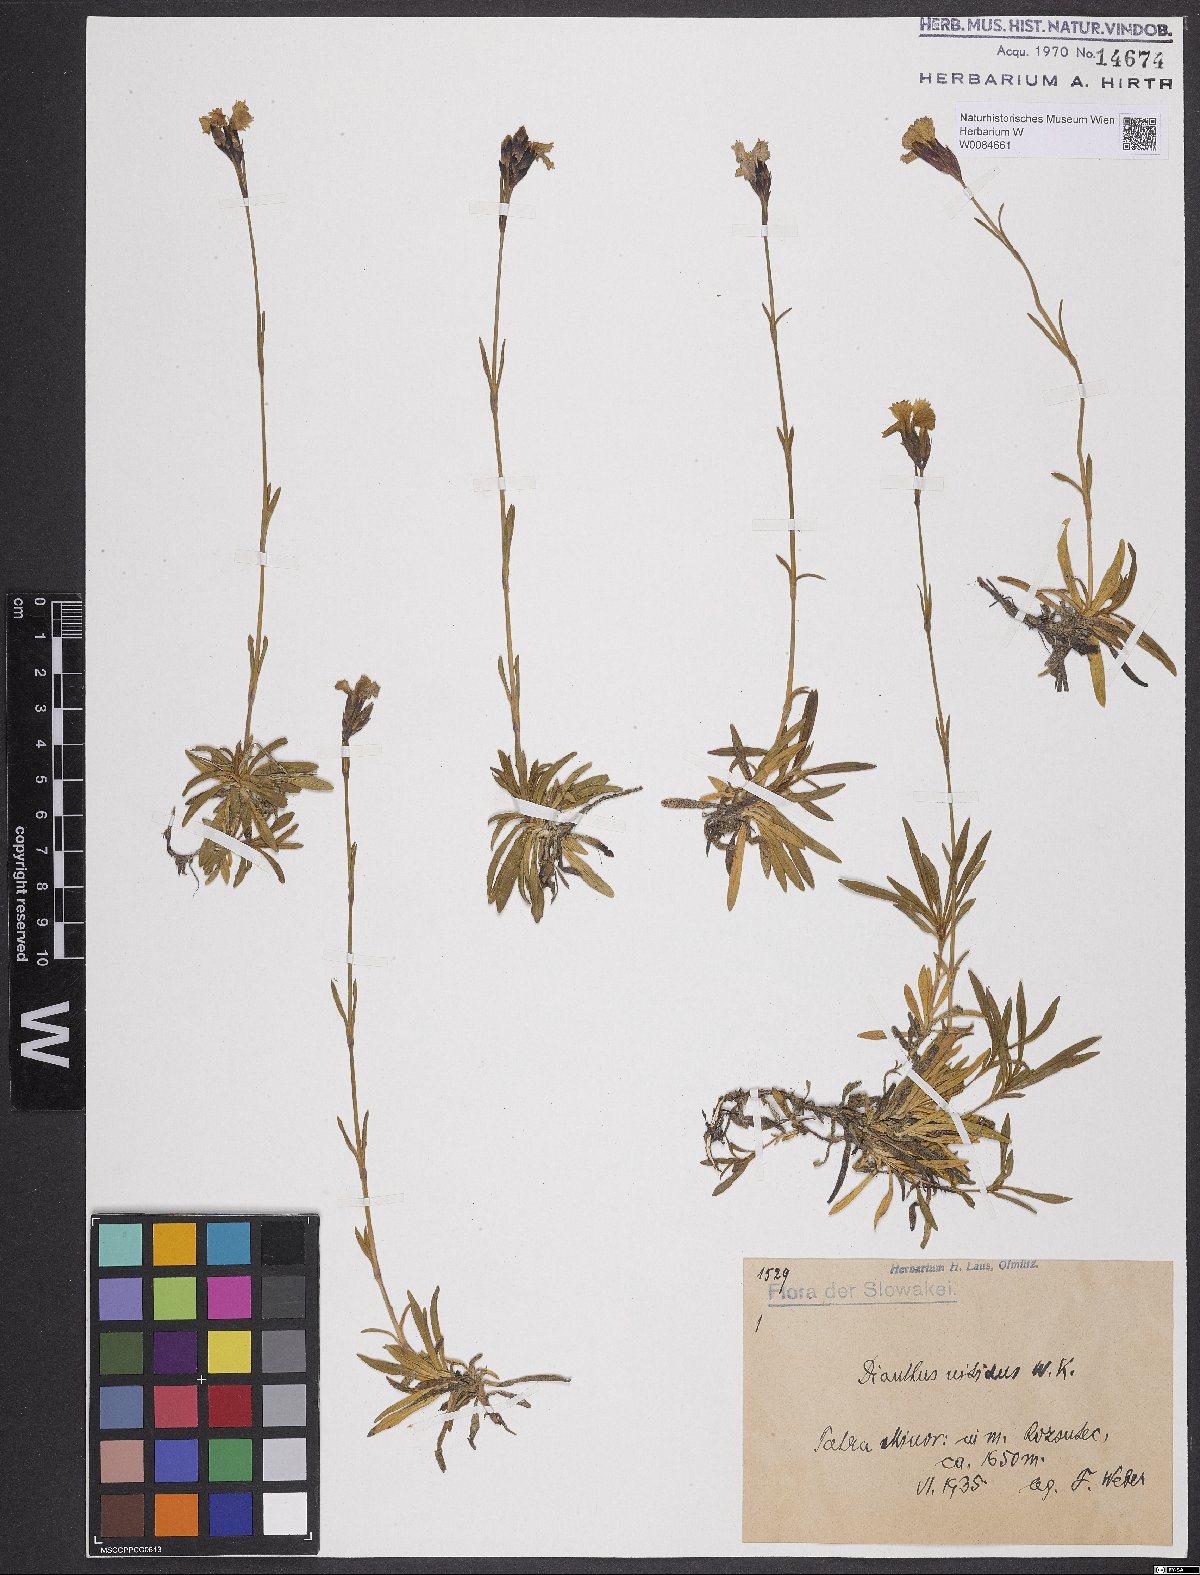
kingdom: Plantae
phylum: Tracheophyta
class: Magnoliopsida
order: Caryophyllales
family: Caryophyllaceae
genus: Dianthus
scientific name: Dianthus nitidus
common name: Carpathian glossy pink
